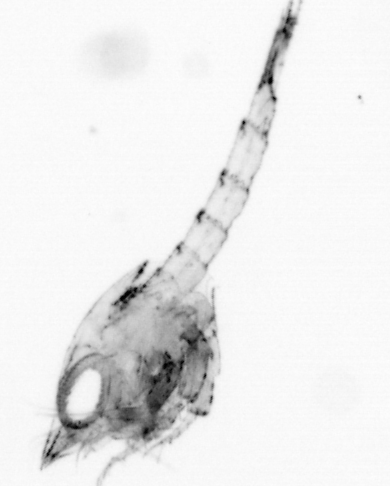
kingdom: Animalia
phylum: Arthropoda
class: Malacostraca
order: Decapoda
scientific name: Decapoda
